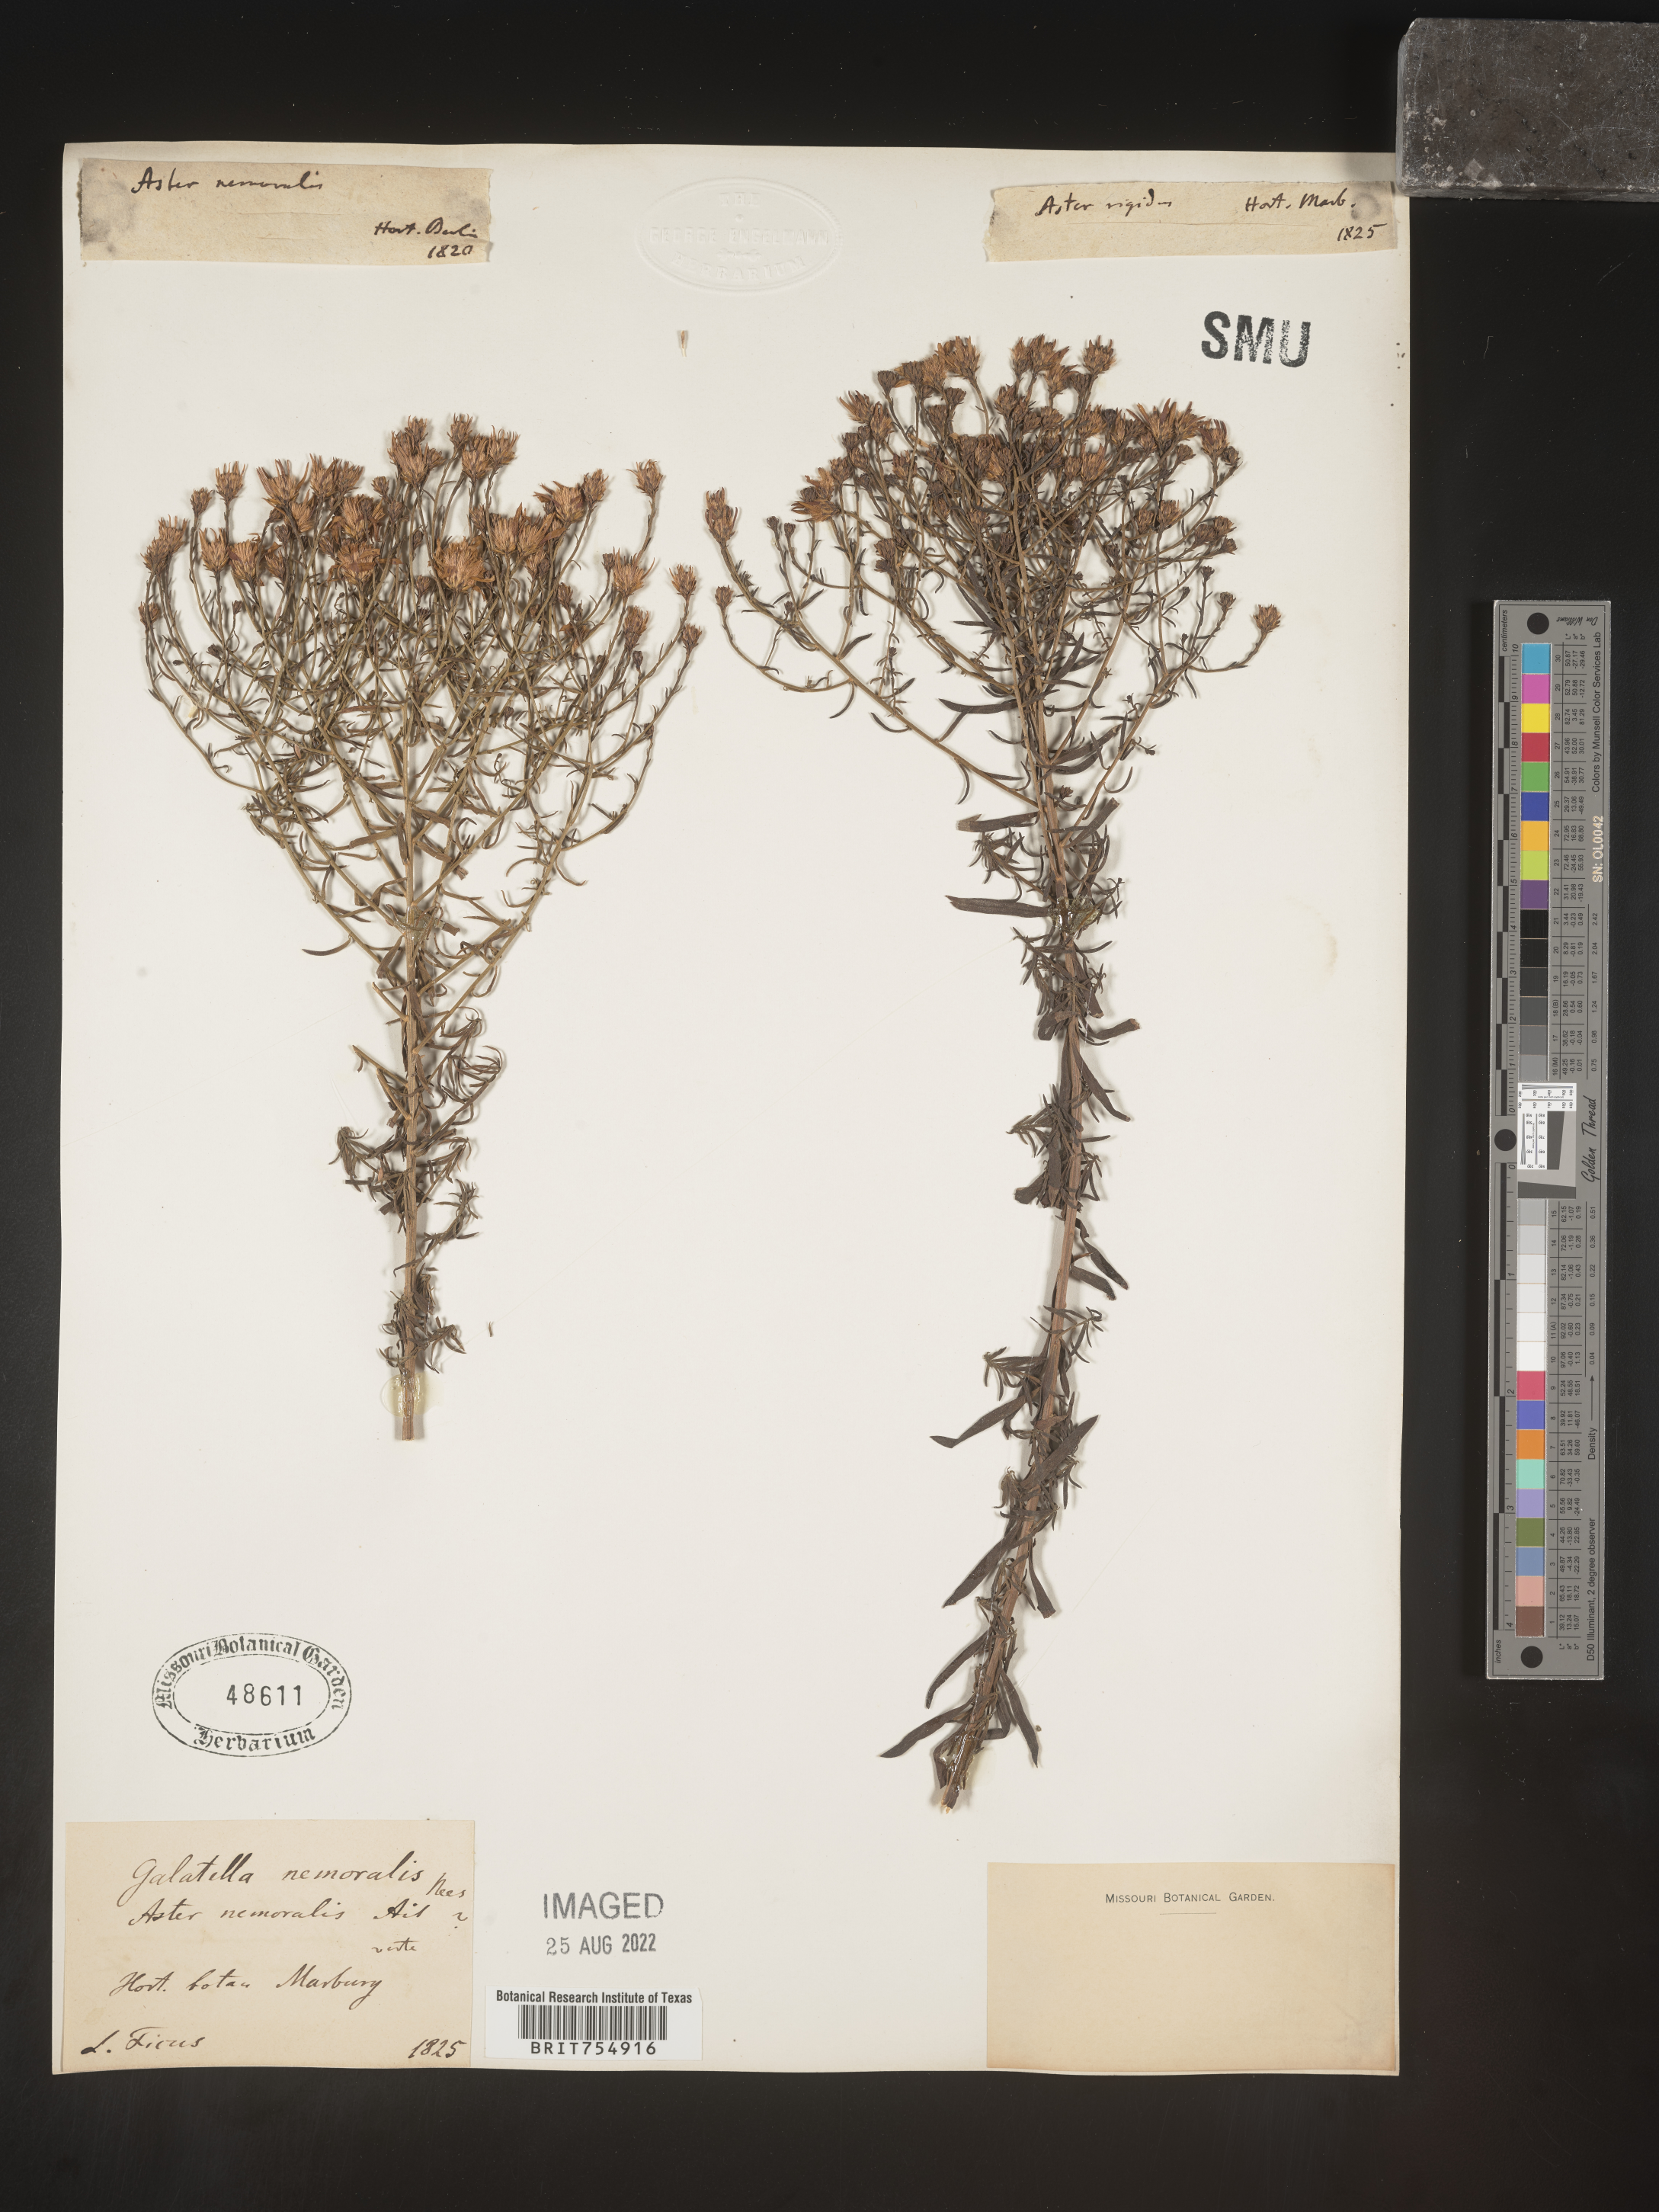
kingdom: Plantae
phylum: Tracheophyta
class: Magnoliopsida
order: Asterales
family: Asteraceae
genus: Symphyotrichum
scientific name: Symphyotrichum
